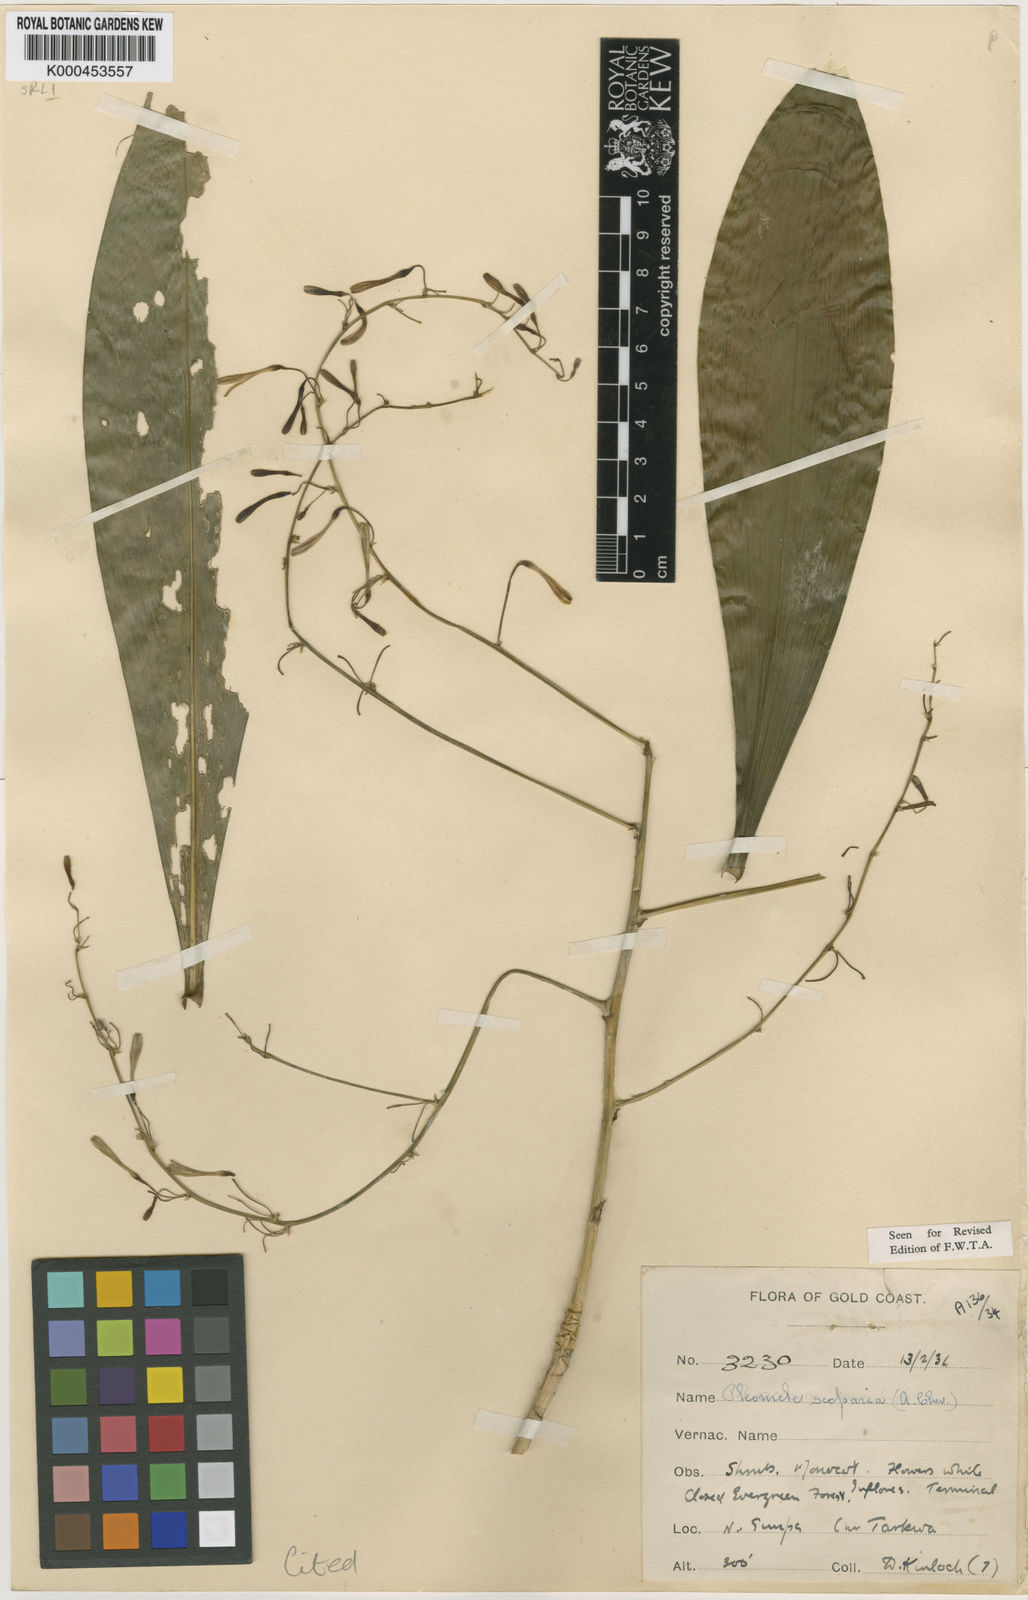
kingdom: Plantae
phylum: Tracheophyta
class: Liliopsida
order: Asparagales
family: Asparagaceae
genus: Dracaena
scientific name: Dracaena cerasifera
